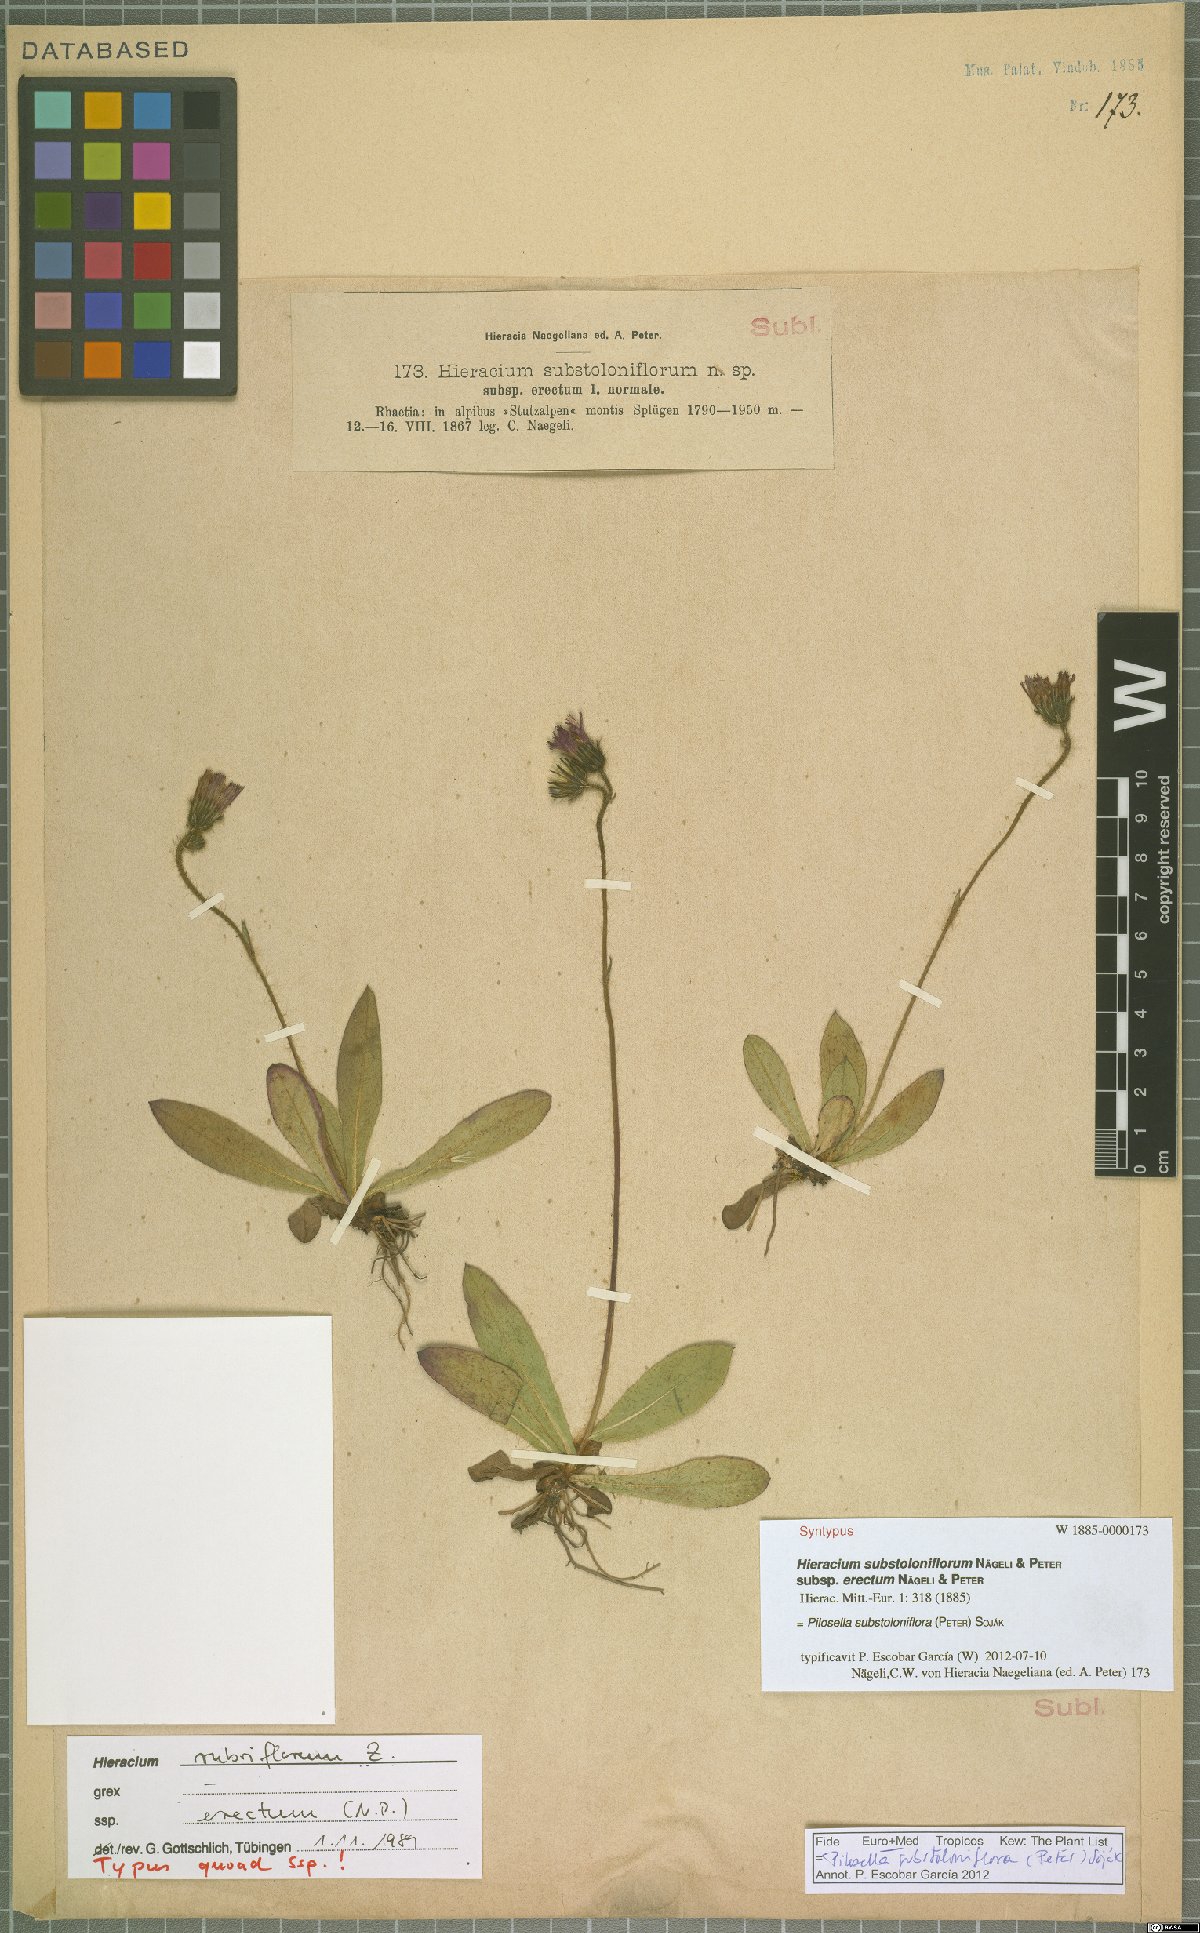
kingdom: Plantae
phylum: Tracheophyta
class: Magnoliopsida
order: Asterales
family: Asteraceae
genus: Pilosella
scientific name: Pilosella substoloniflora
